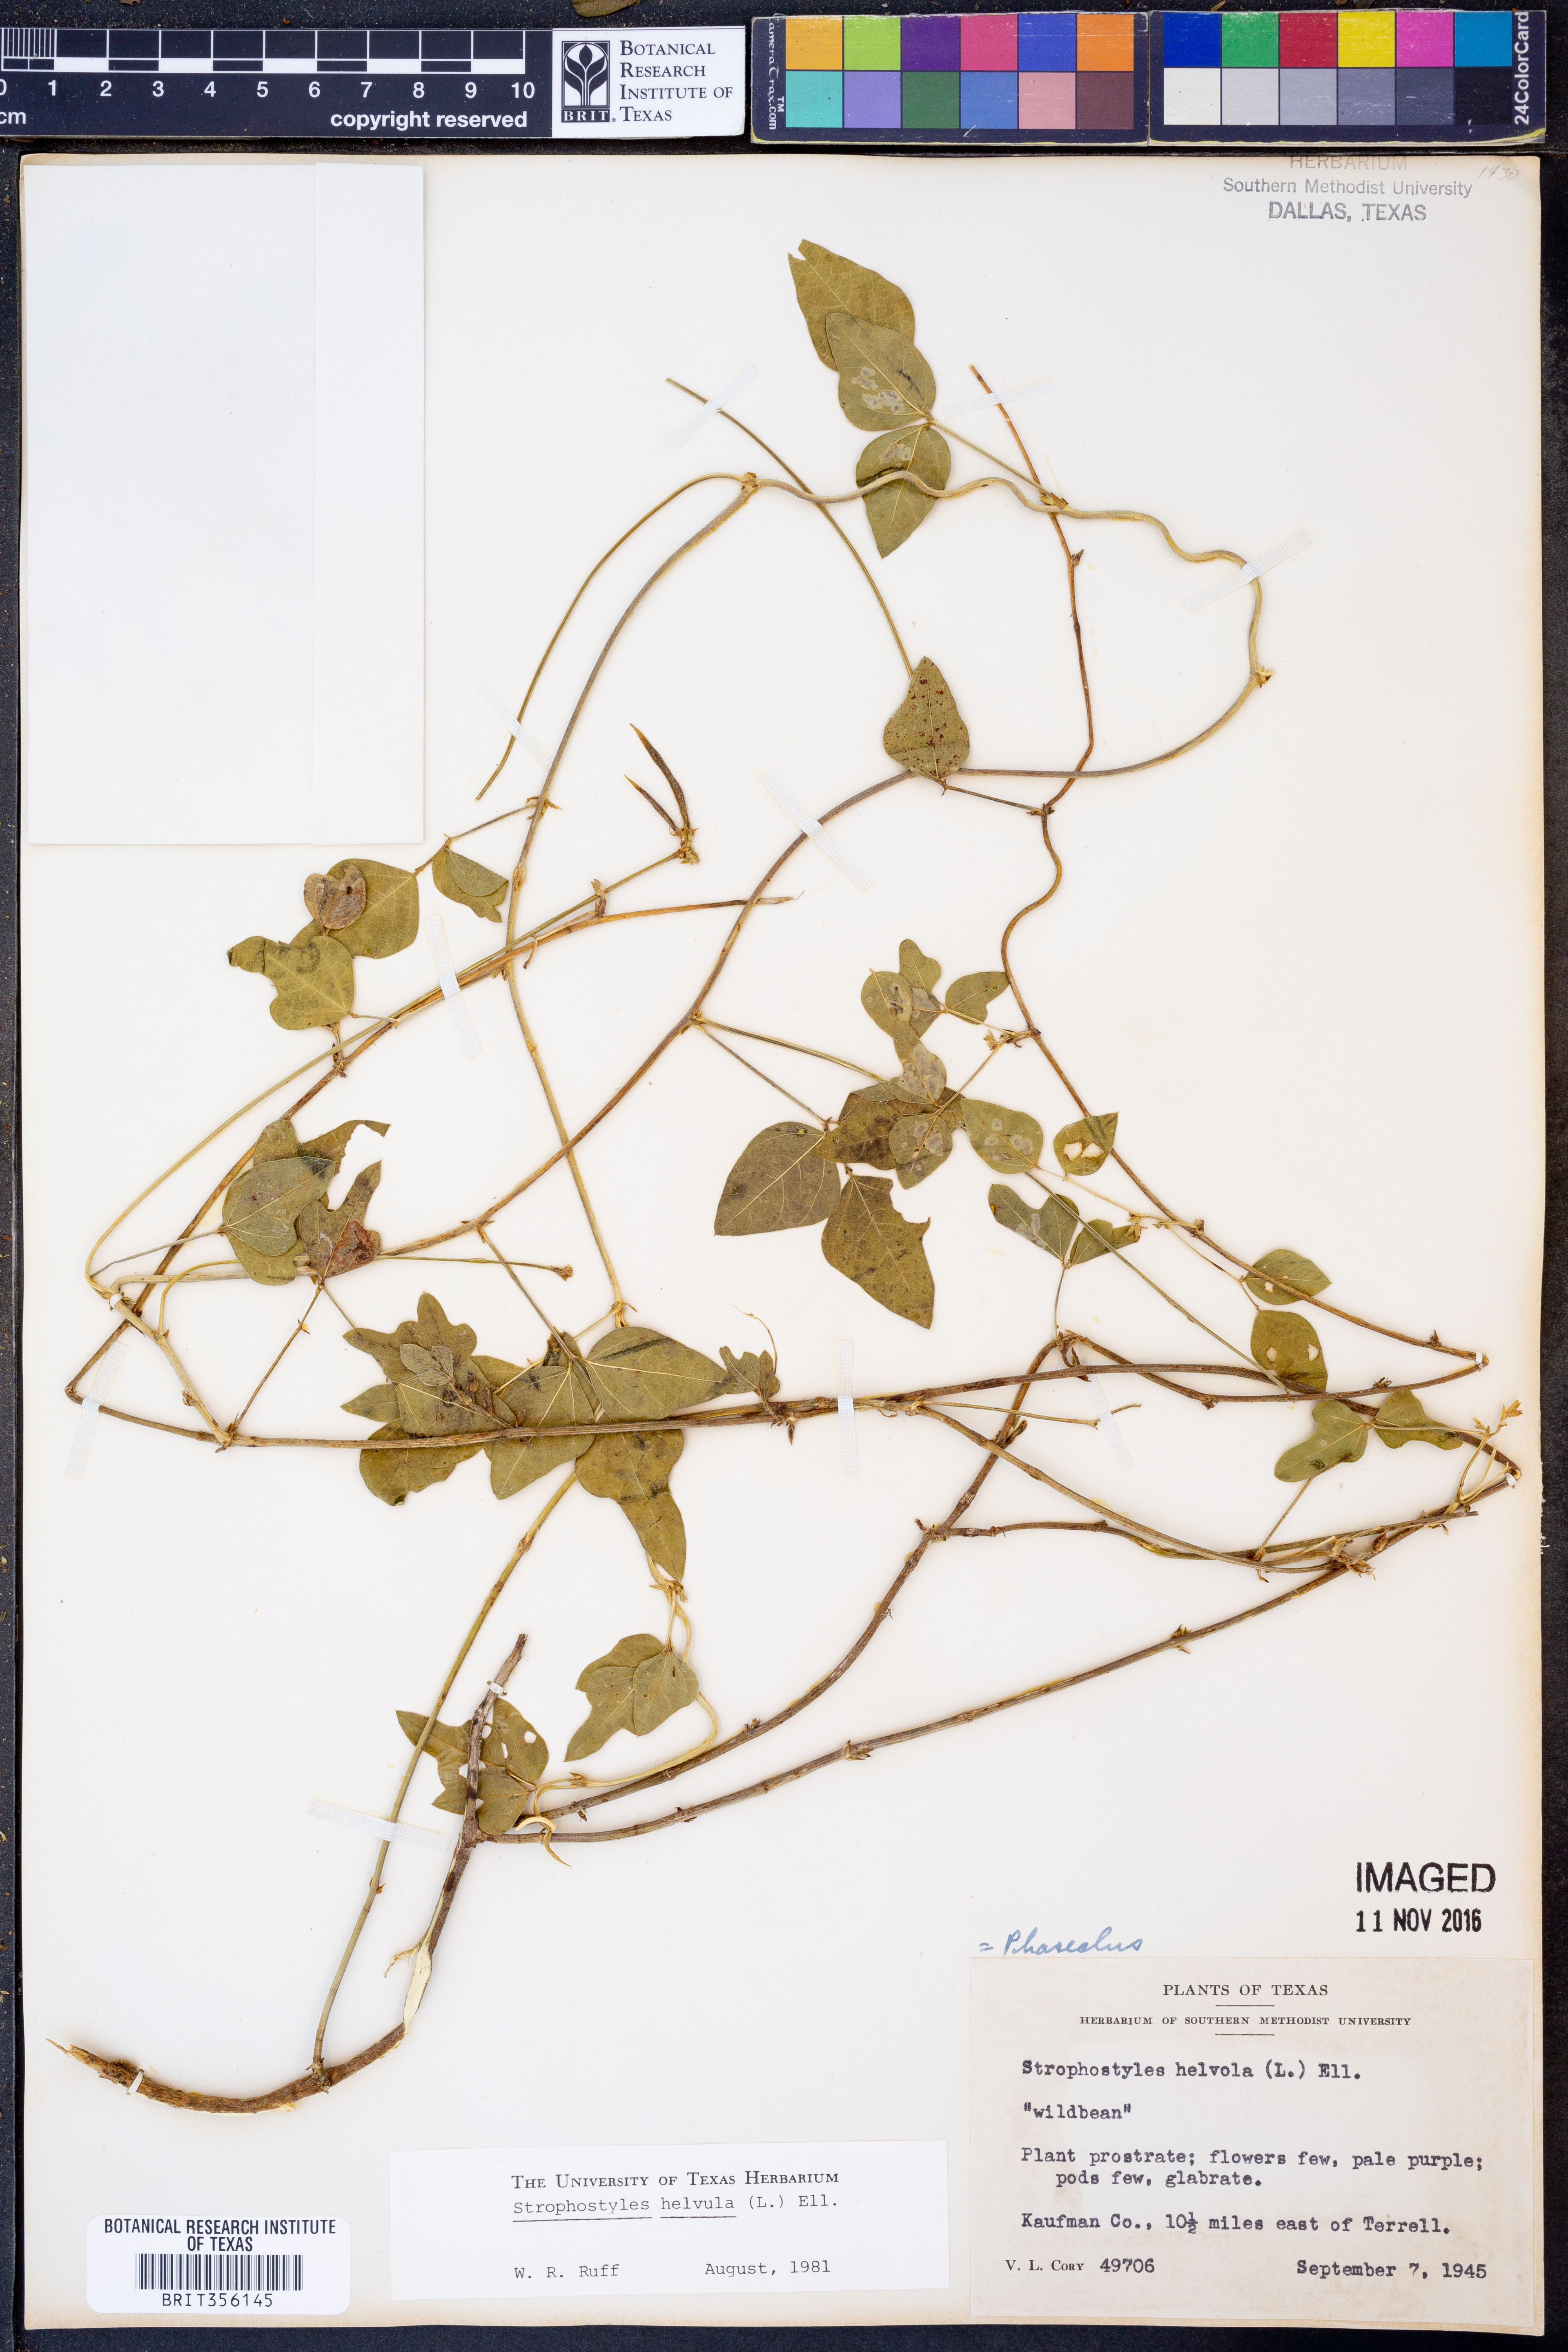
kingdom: Plantae
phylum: Tracheophyta
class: Magnoliopsida
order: Fabales
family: Fabaceae
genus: Strophostyles
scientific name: Strophostyles helvola
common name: Trailing wild bean
